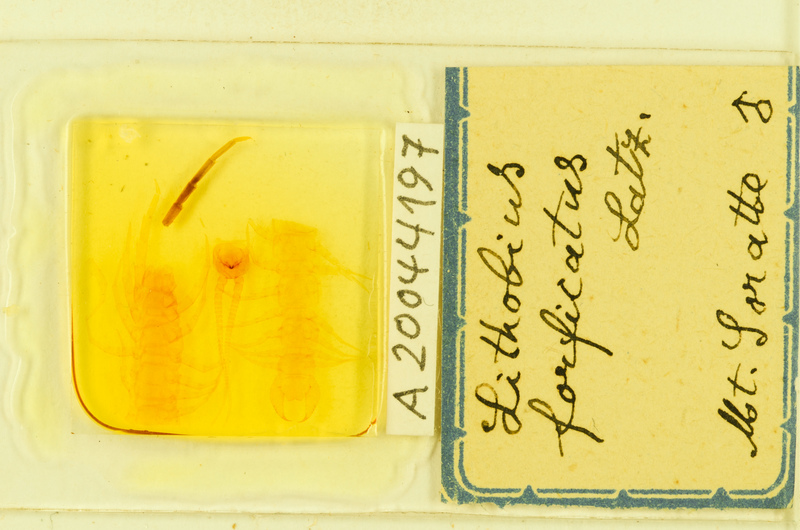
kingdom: Animalia
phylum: Arthropoda
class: Chilopoda
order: Lithobiomorpha
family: Lithobiidae
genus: Lithobius
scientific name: Lithobius forficatus
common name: Centipede
